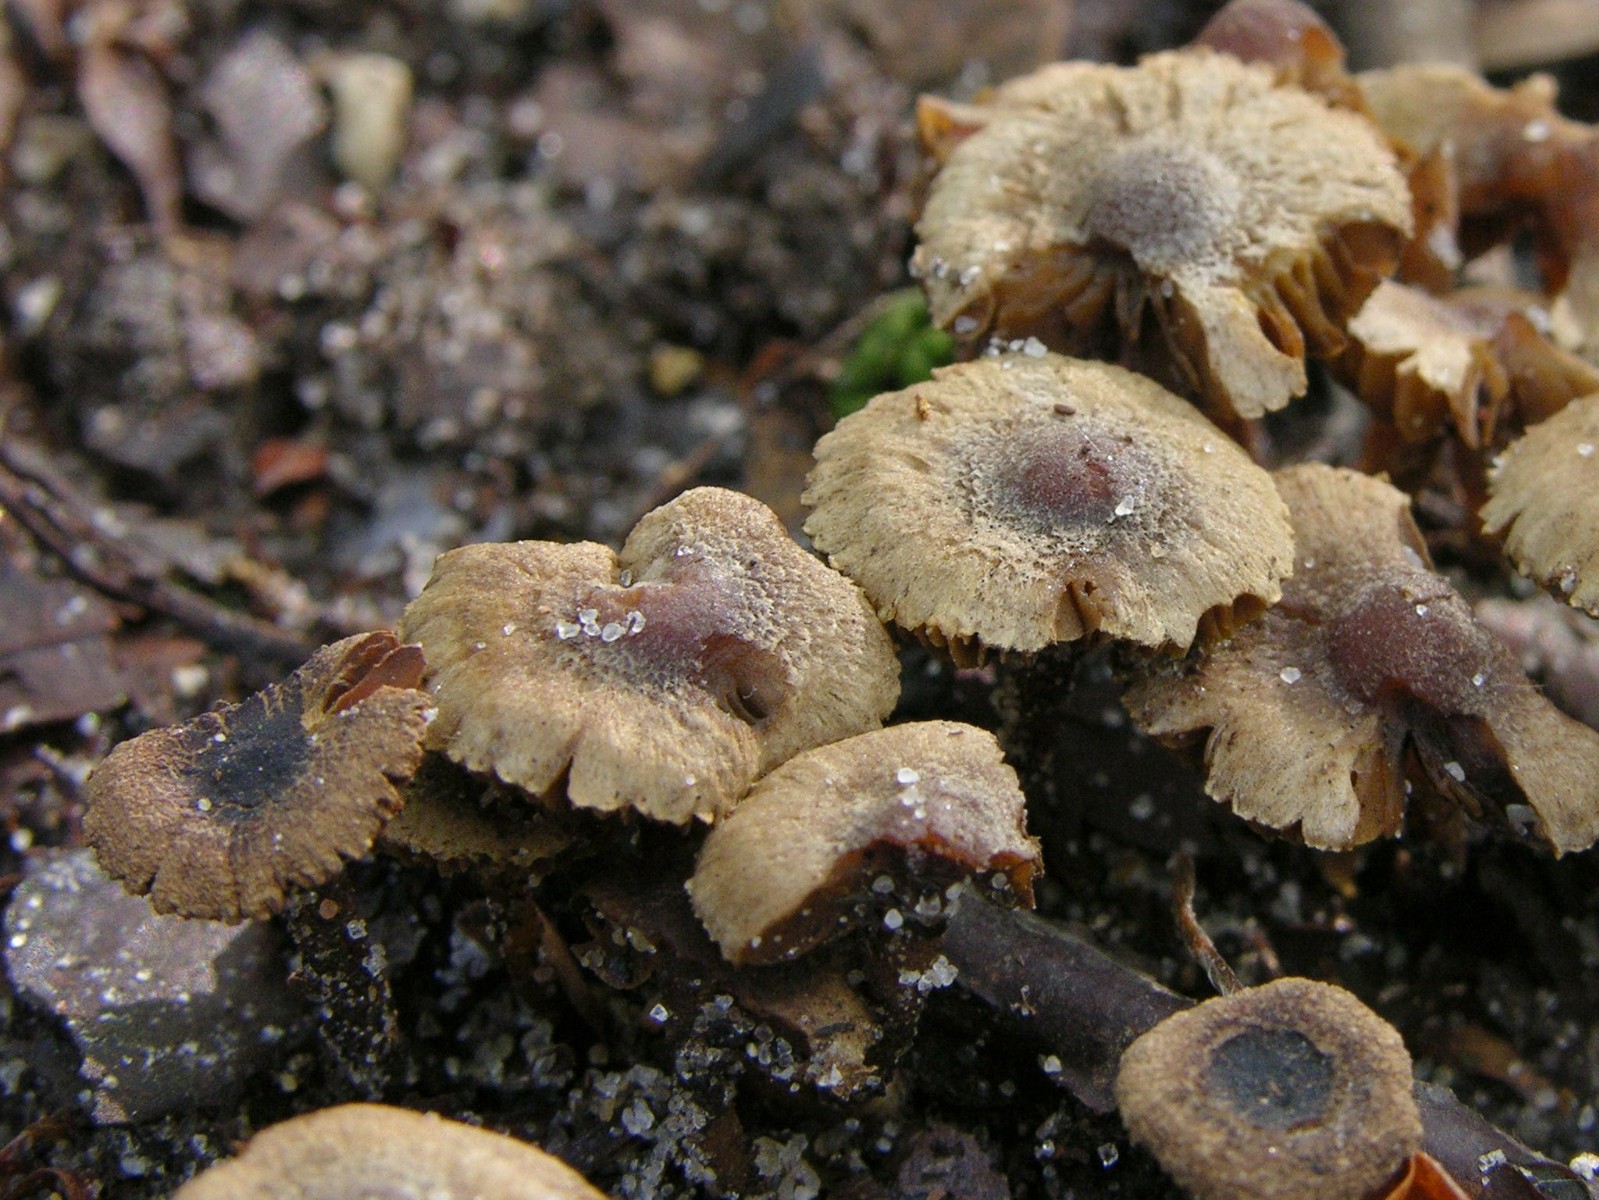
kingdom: Fungi
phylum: Basidiomycota
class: Agaricomycetes
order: Agaricales
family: Inocybaceae
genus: Inocybe
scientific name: Inocybe petiginosa
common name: liden trævlhat
